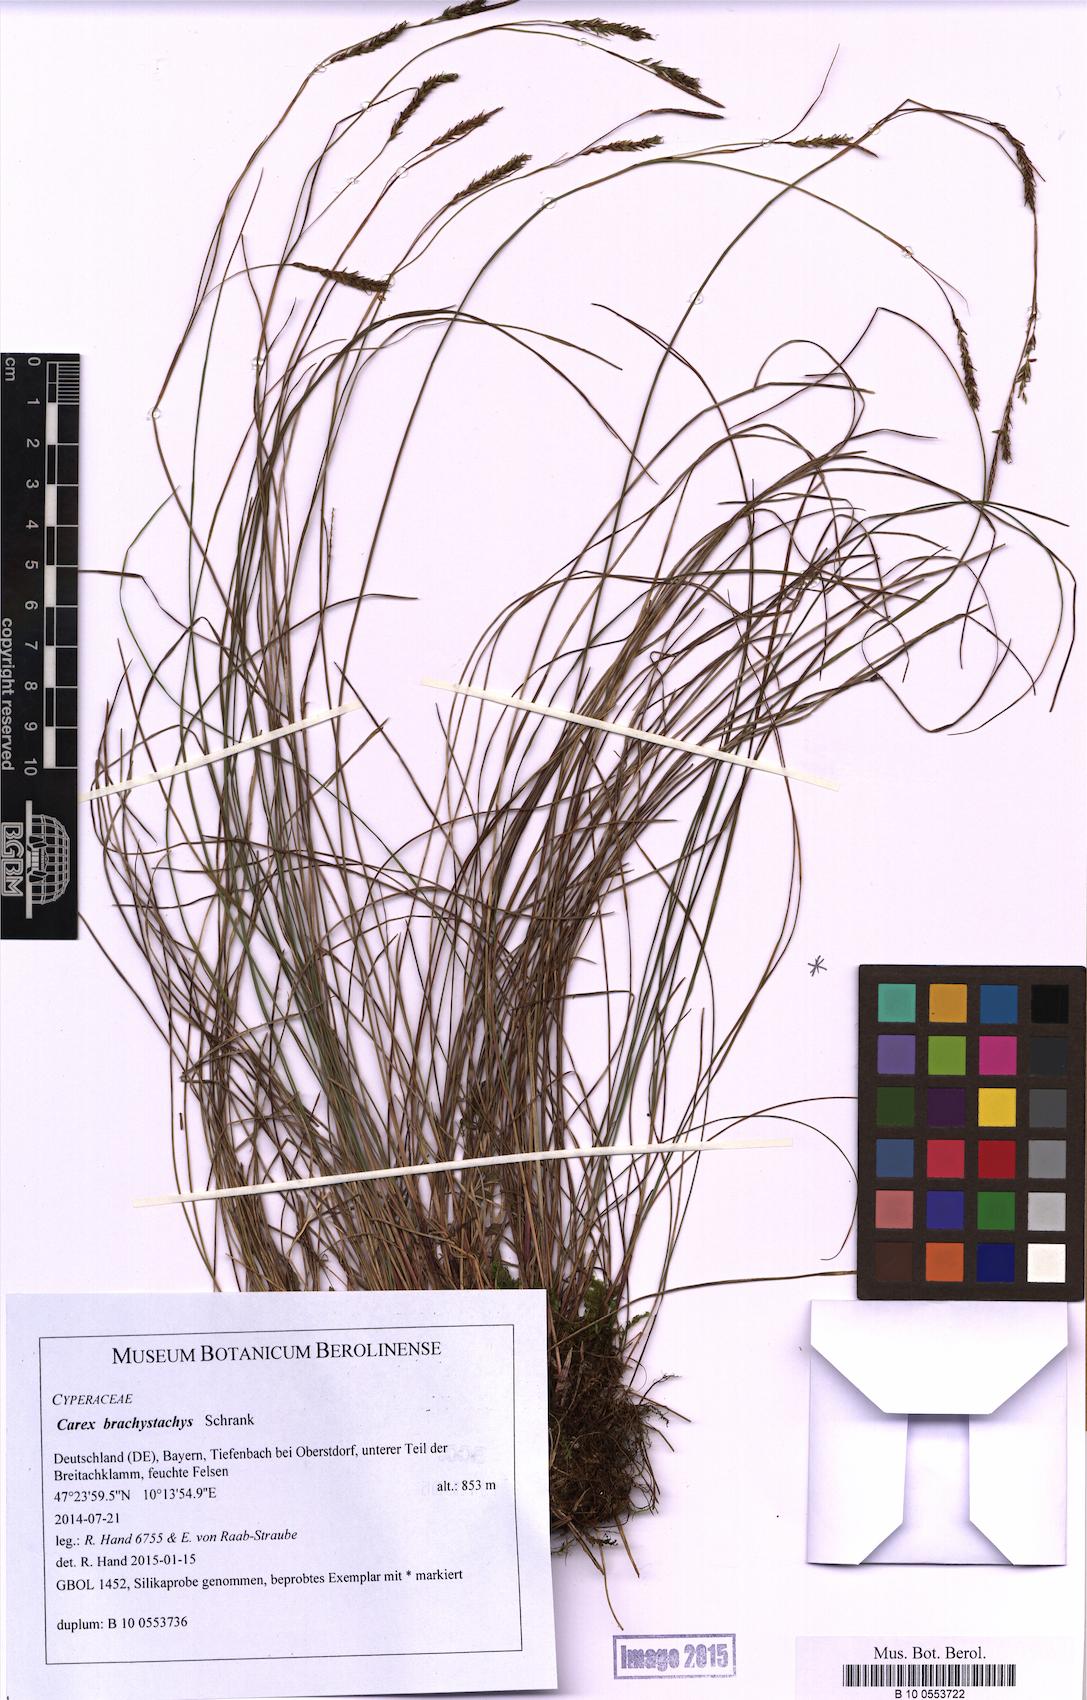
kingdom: Plantae
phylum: Tracheophyta
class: Liliopsida
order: Poales
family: Cyperaceae
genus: Carex
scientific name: Carex brachystachys
